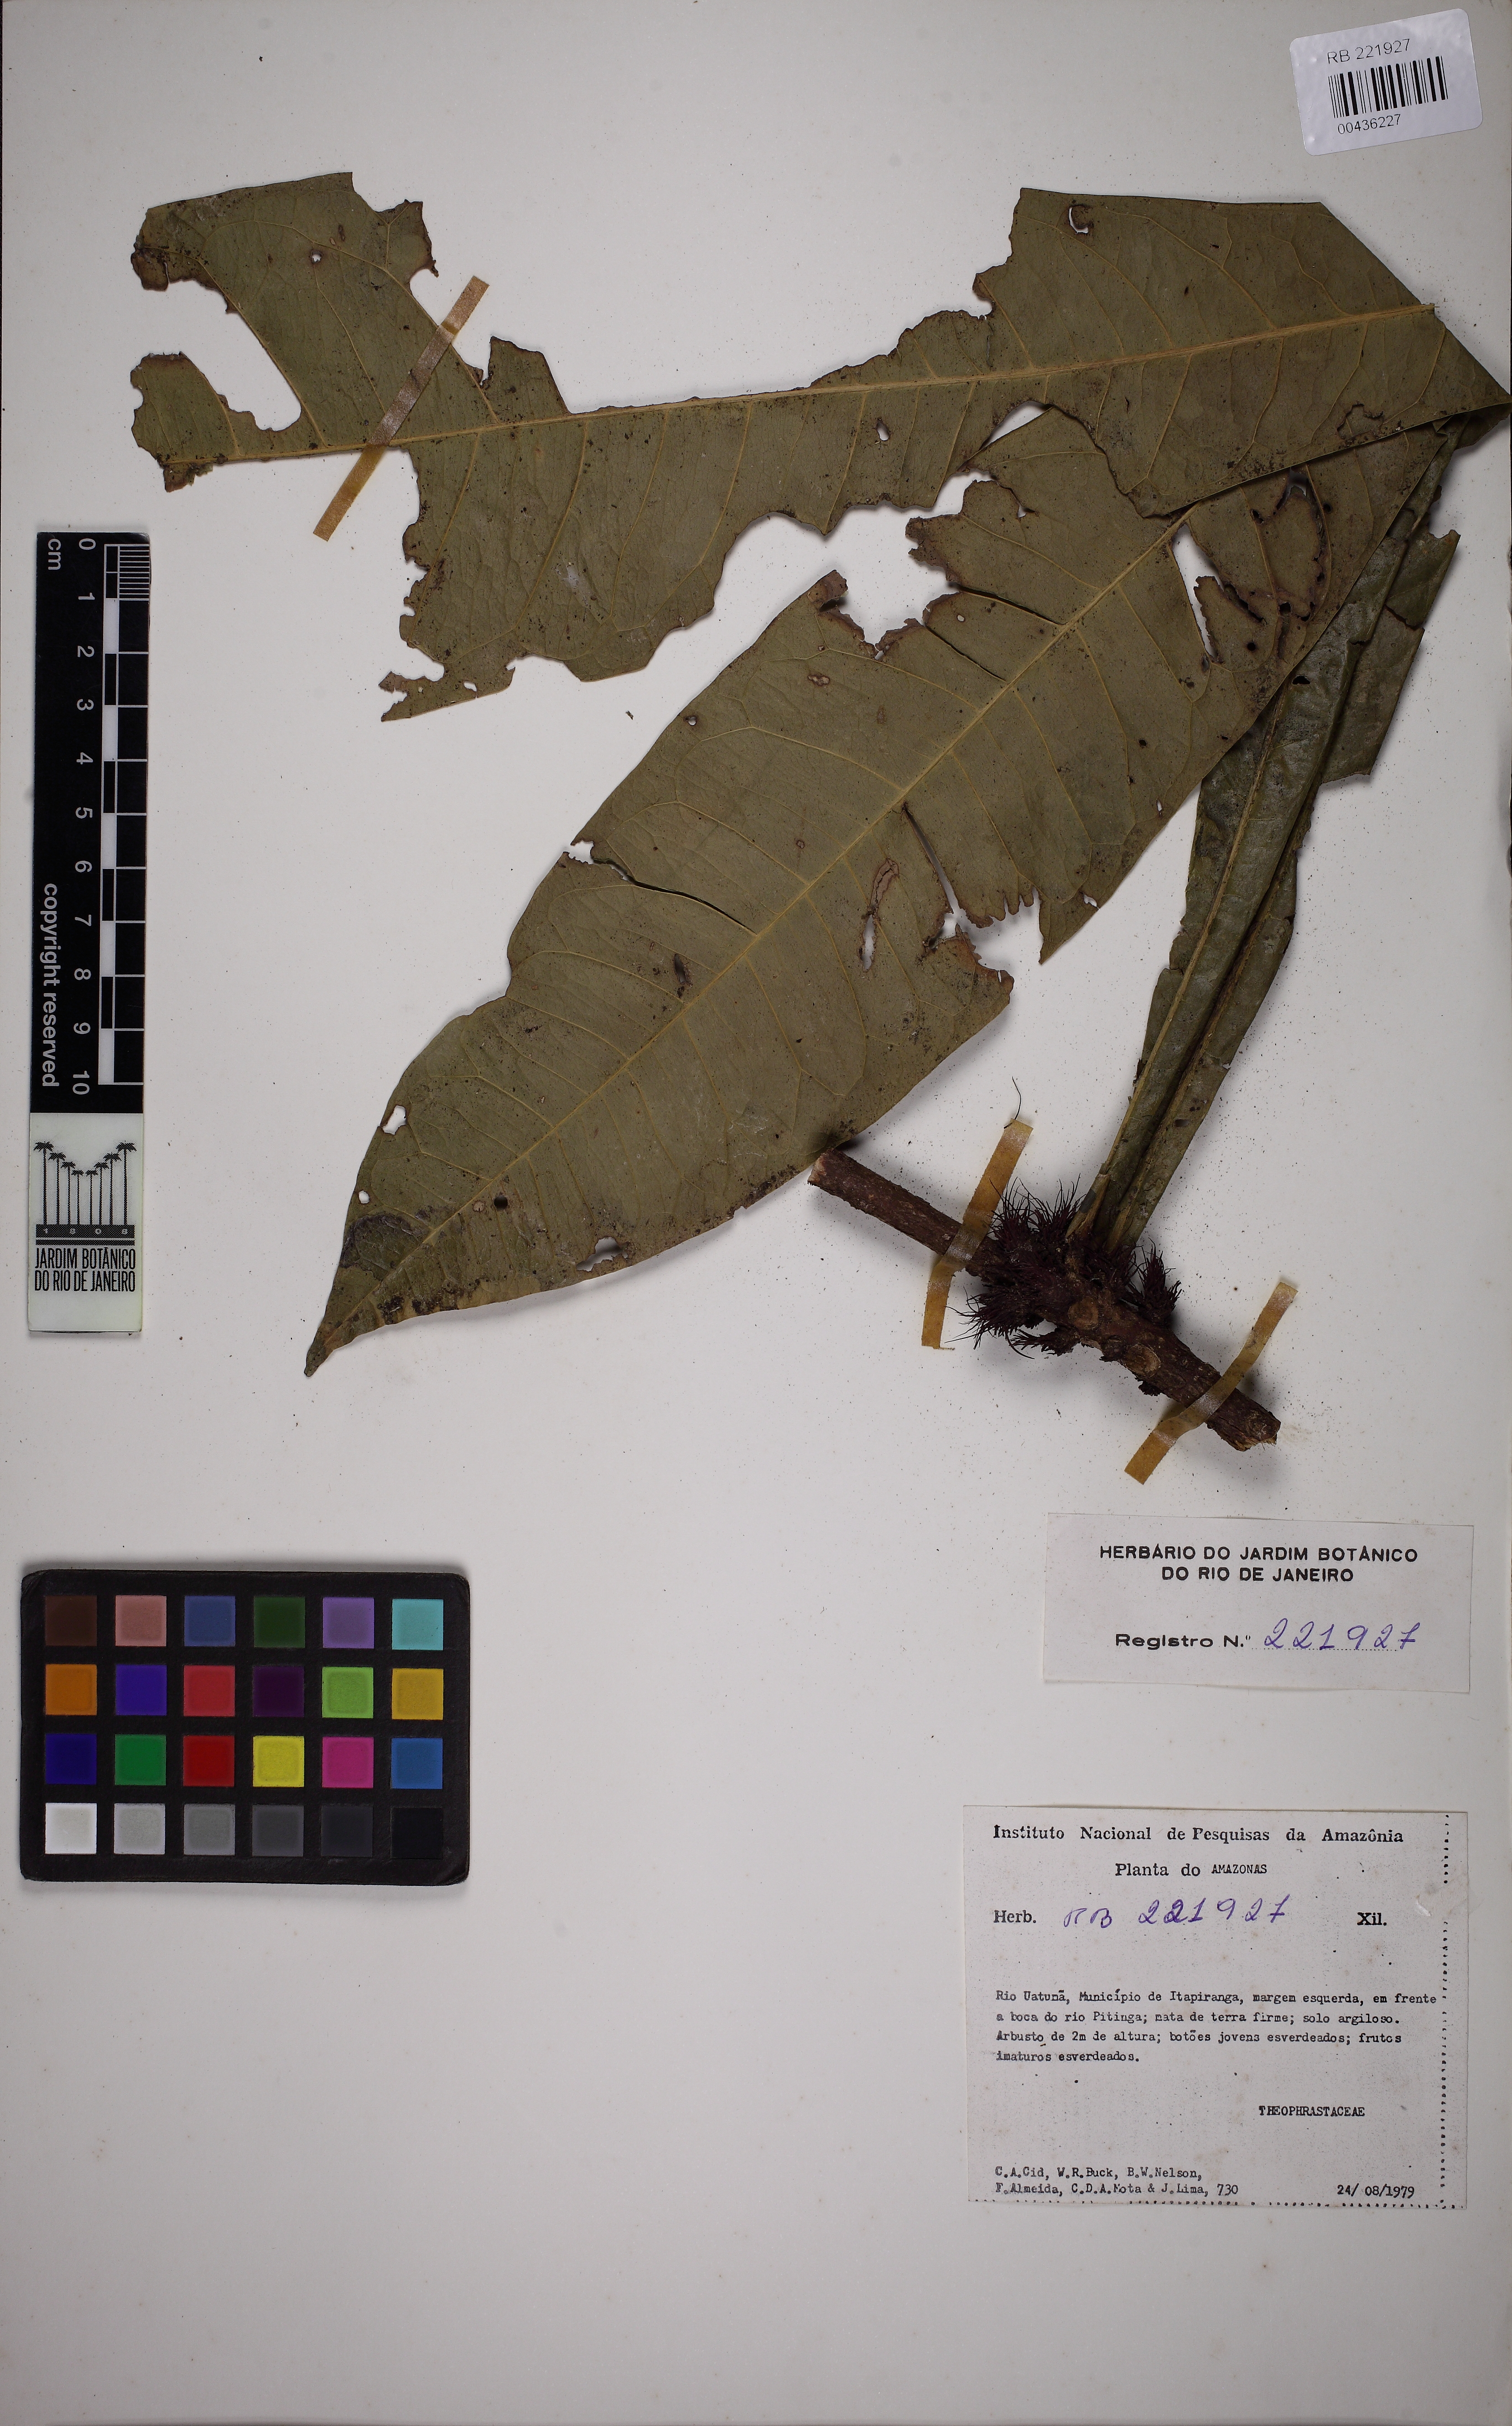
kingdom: Plantae
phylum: Tracheophyta
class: Magnoliopsida
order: Ericales
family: Primulaceae
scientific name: Primulaceae
